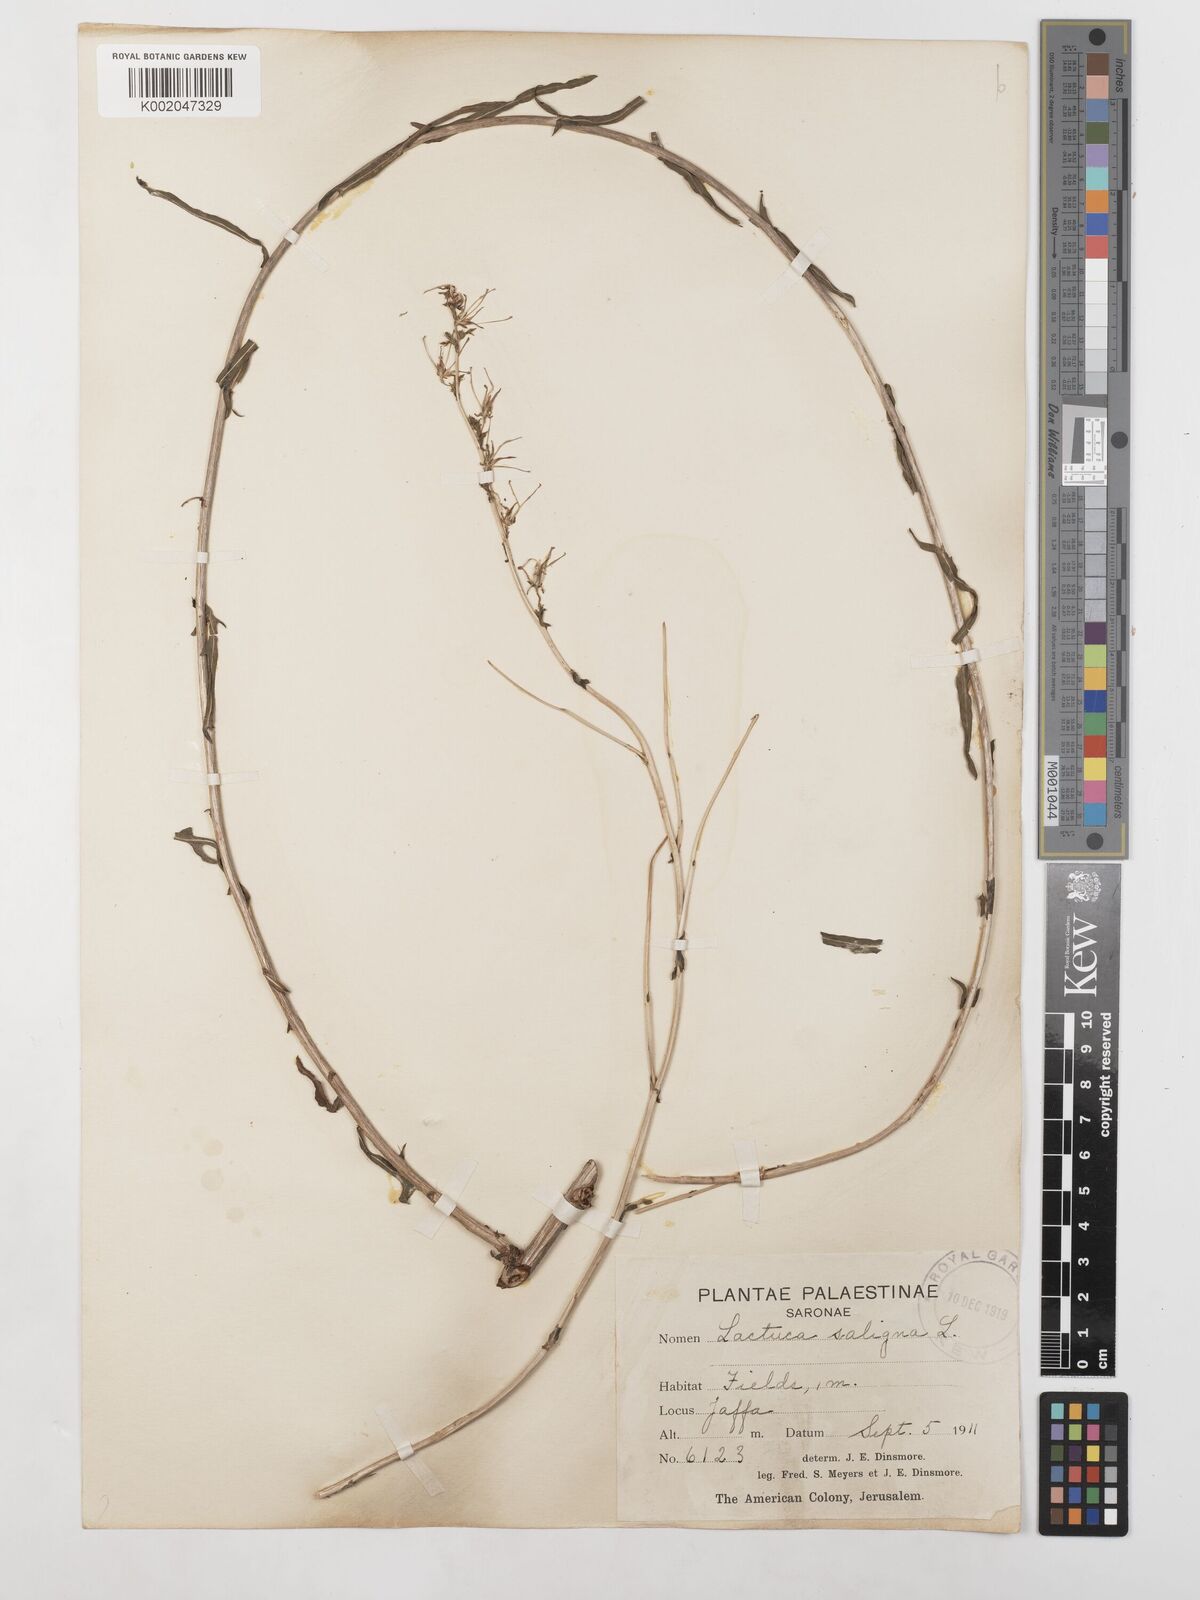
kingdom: Plantae
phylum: Tracheophyta
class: Magnoliopsida
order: Asterales
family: Asteraceae
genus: Lactuca
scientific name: Lactuca saligna
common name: Wild lettuce
